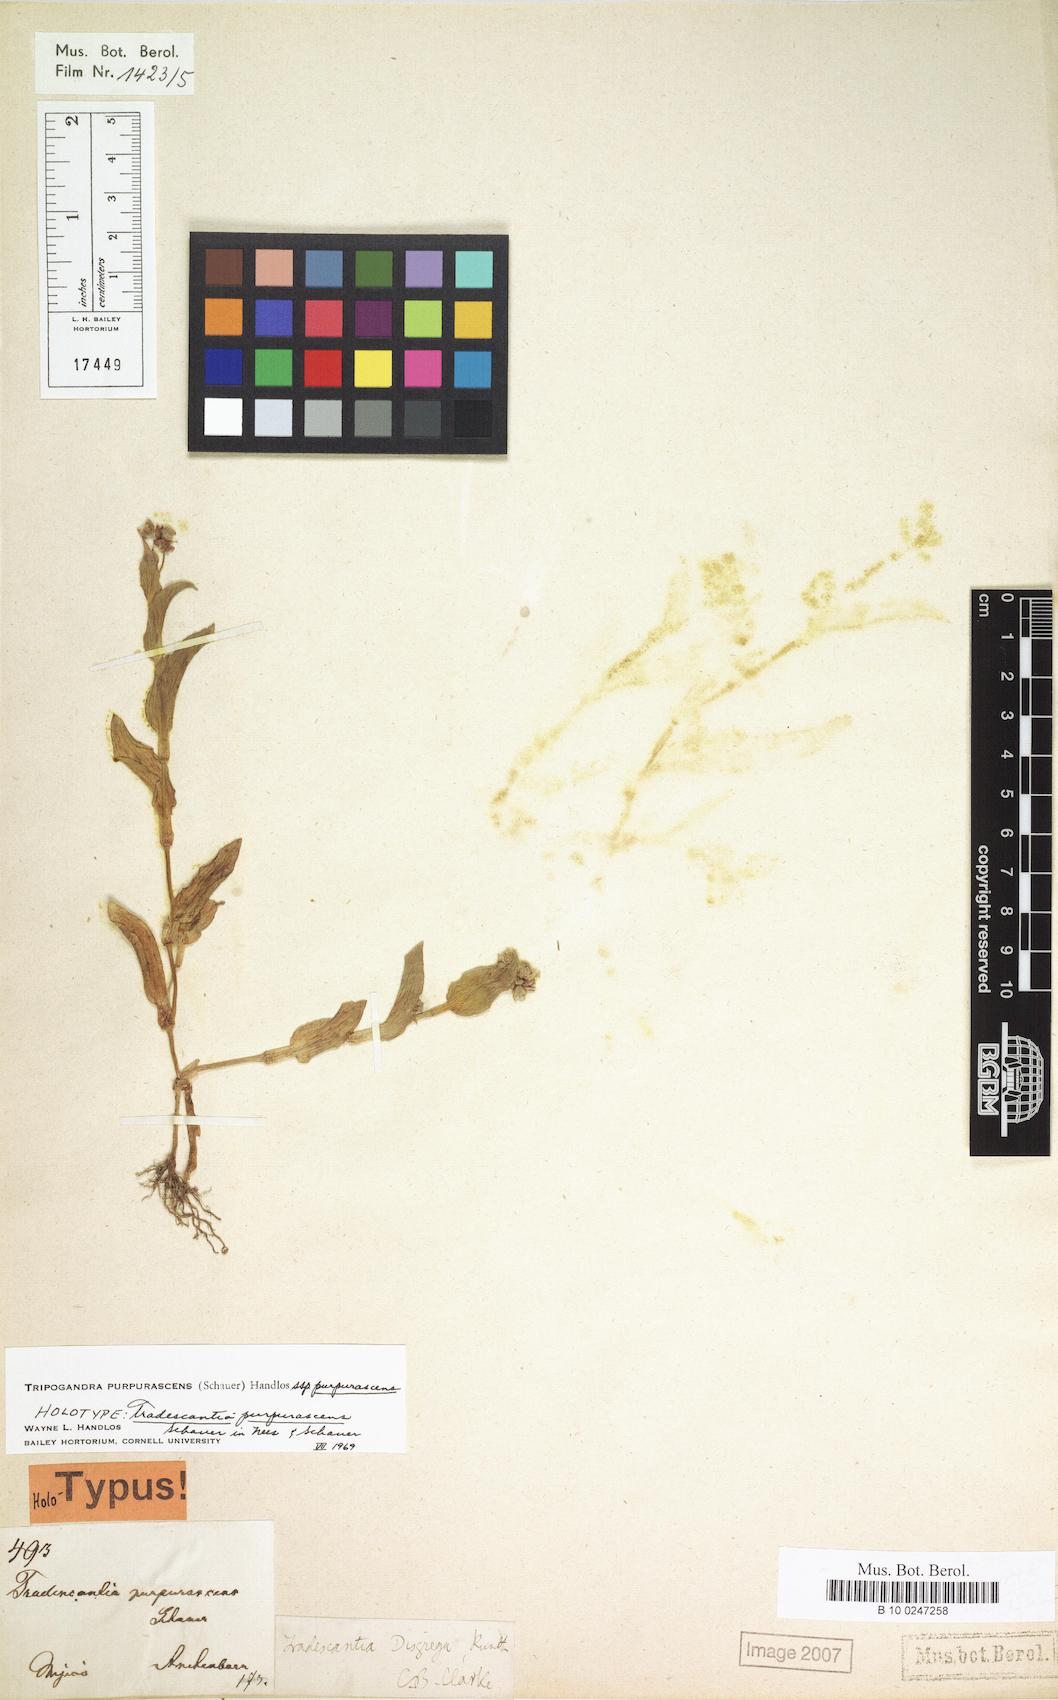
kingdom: Plantae
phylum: Tracheophyta
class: Liliopsida
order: Commelinales
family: Commelinaceae
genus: Callisia
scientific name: Callisia purpurascens
